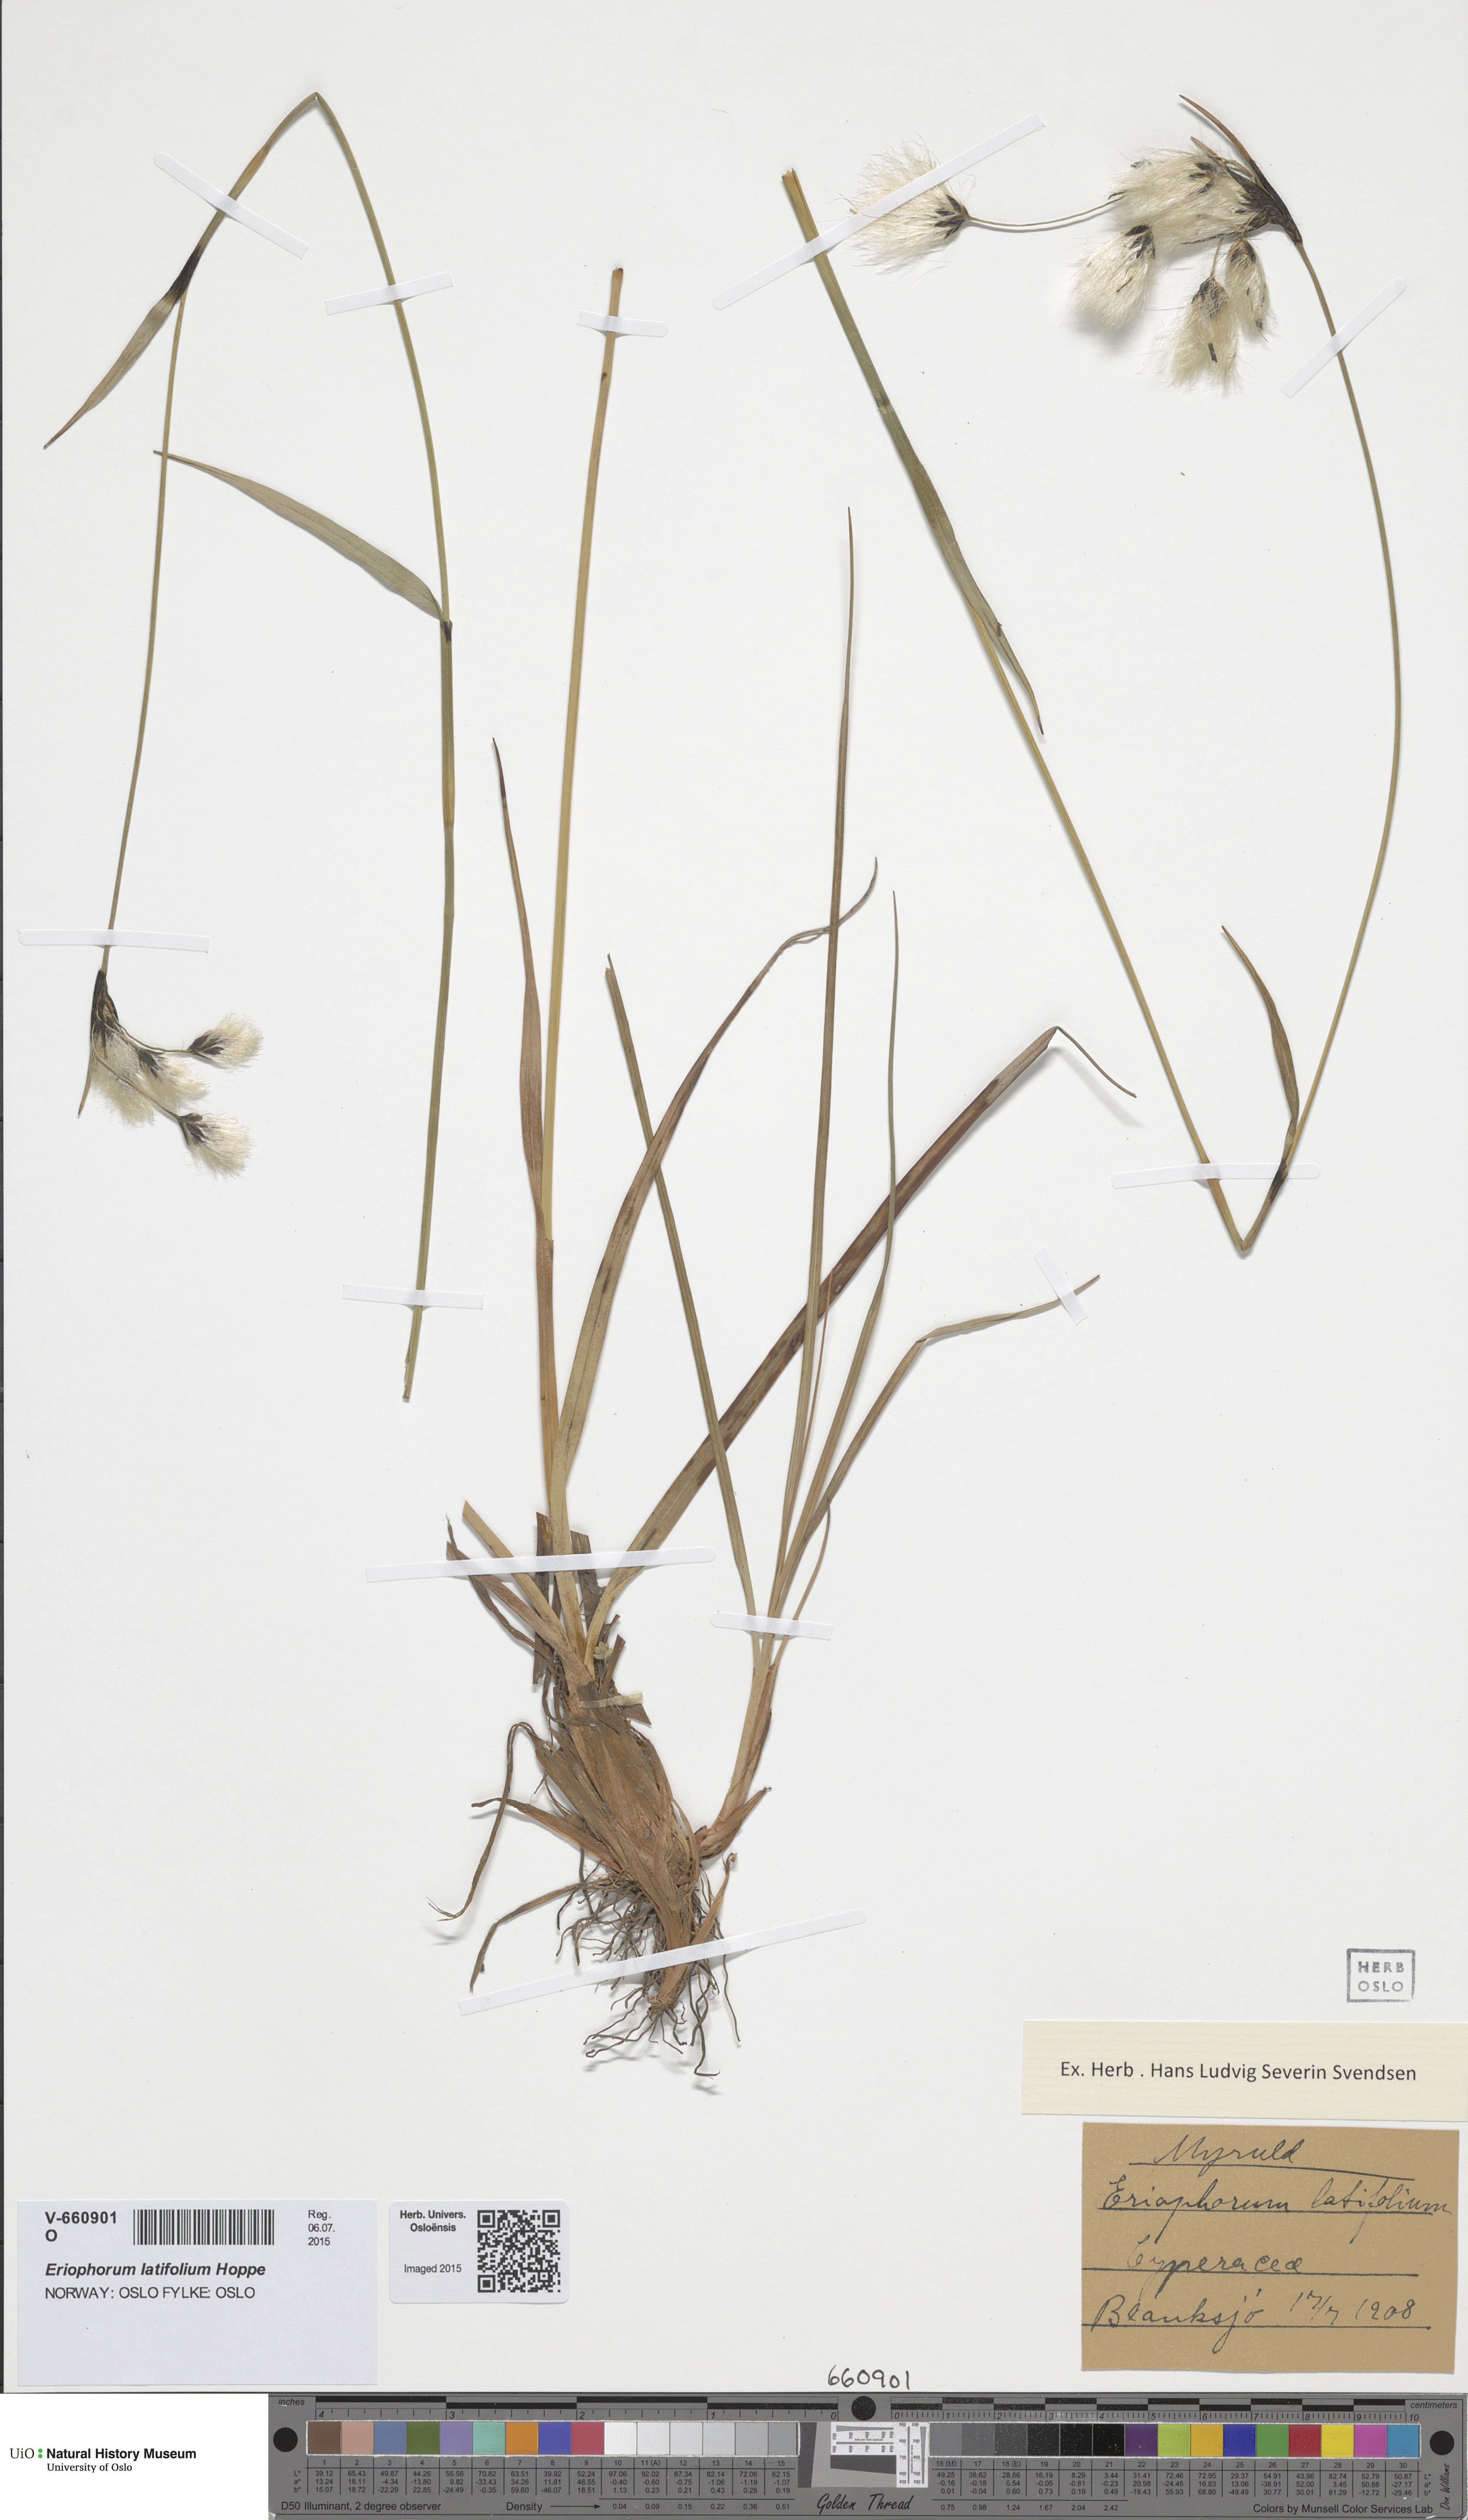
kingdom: Plantae
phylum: Tracheophyta
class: Liliopsida
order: Poales
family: Cyperaceae
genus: Eriophorum
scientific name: Eriophorum latifolium
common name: Broad-leaved cottongrass
